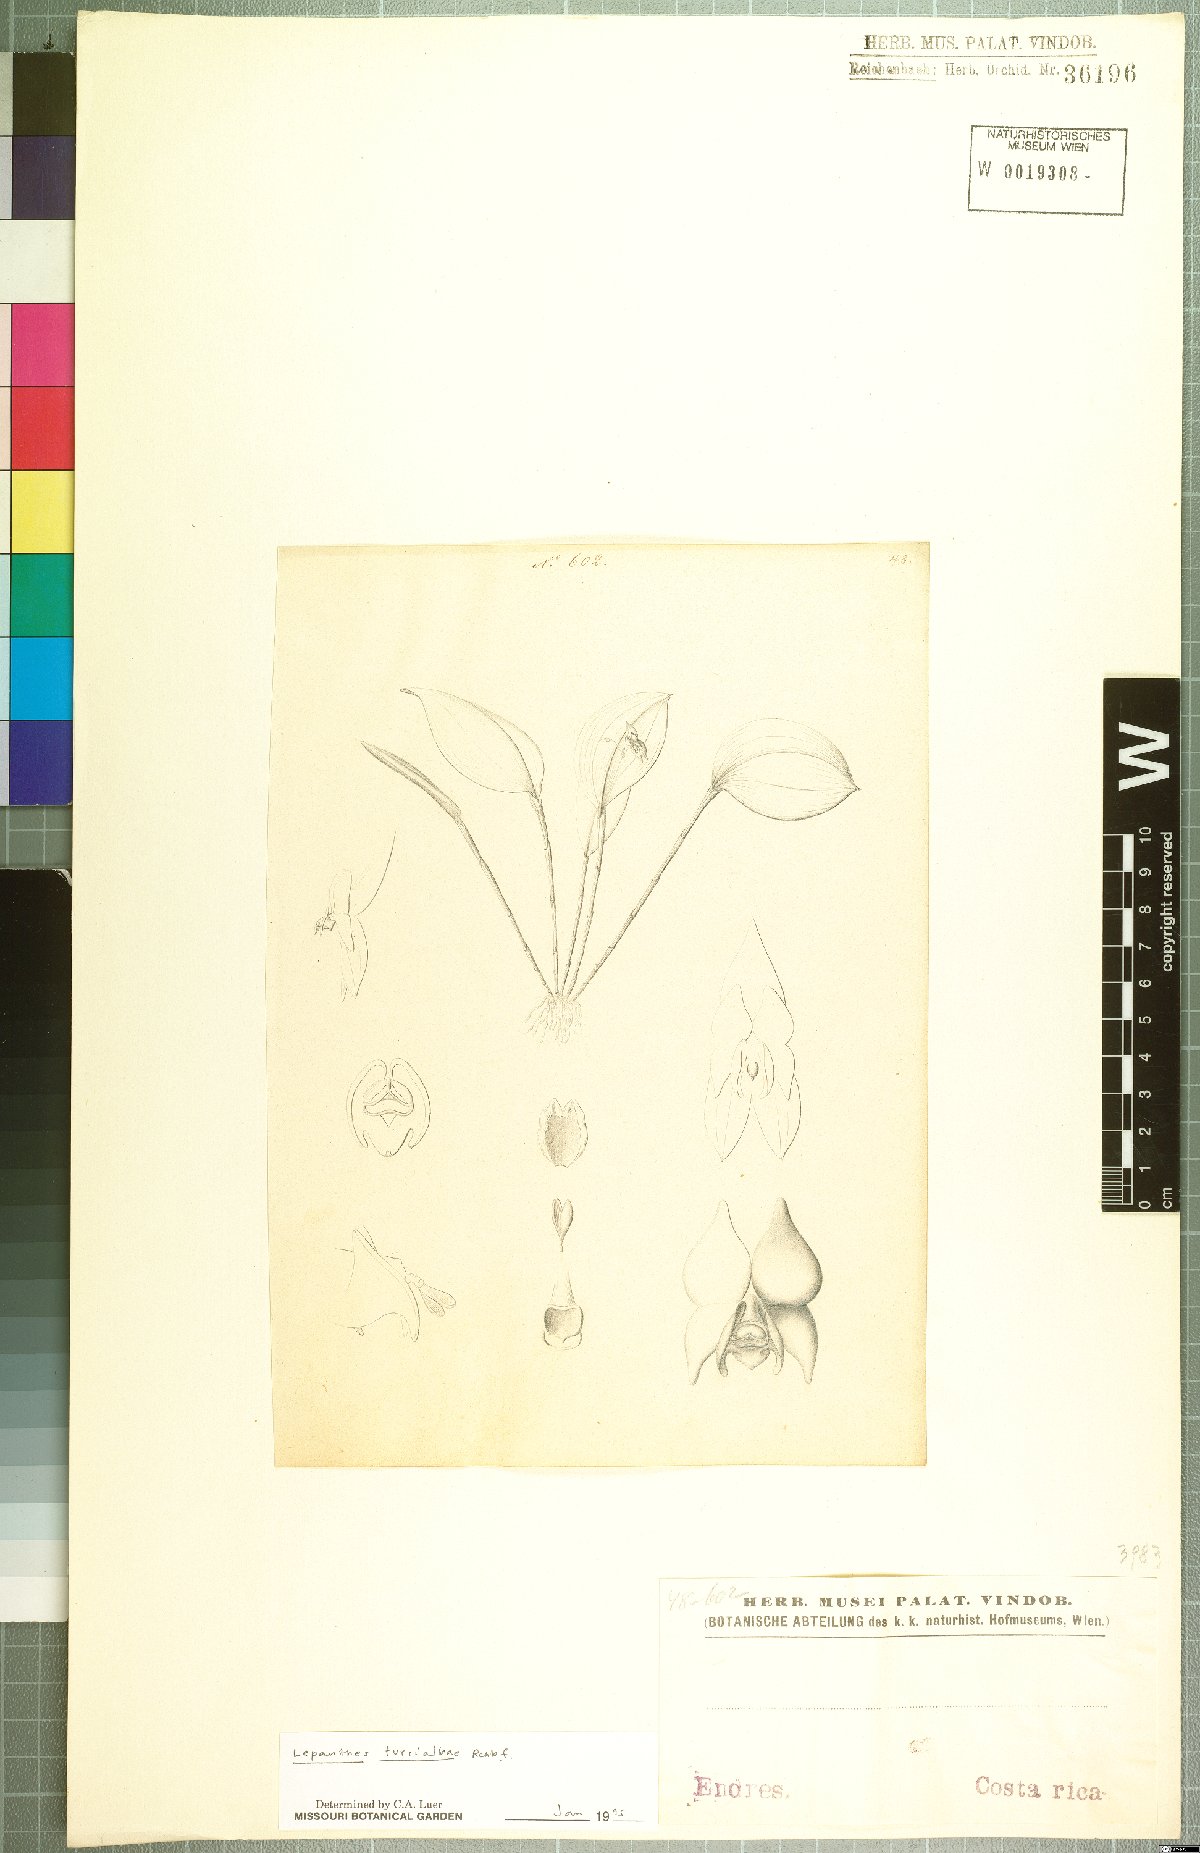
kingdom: Plantae
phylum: Tracheophyta
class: Liliopsida
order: Asparagales
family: Orchidaceae
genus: Lepanthes
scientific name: Lepanthes turialvae
